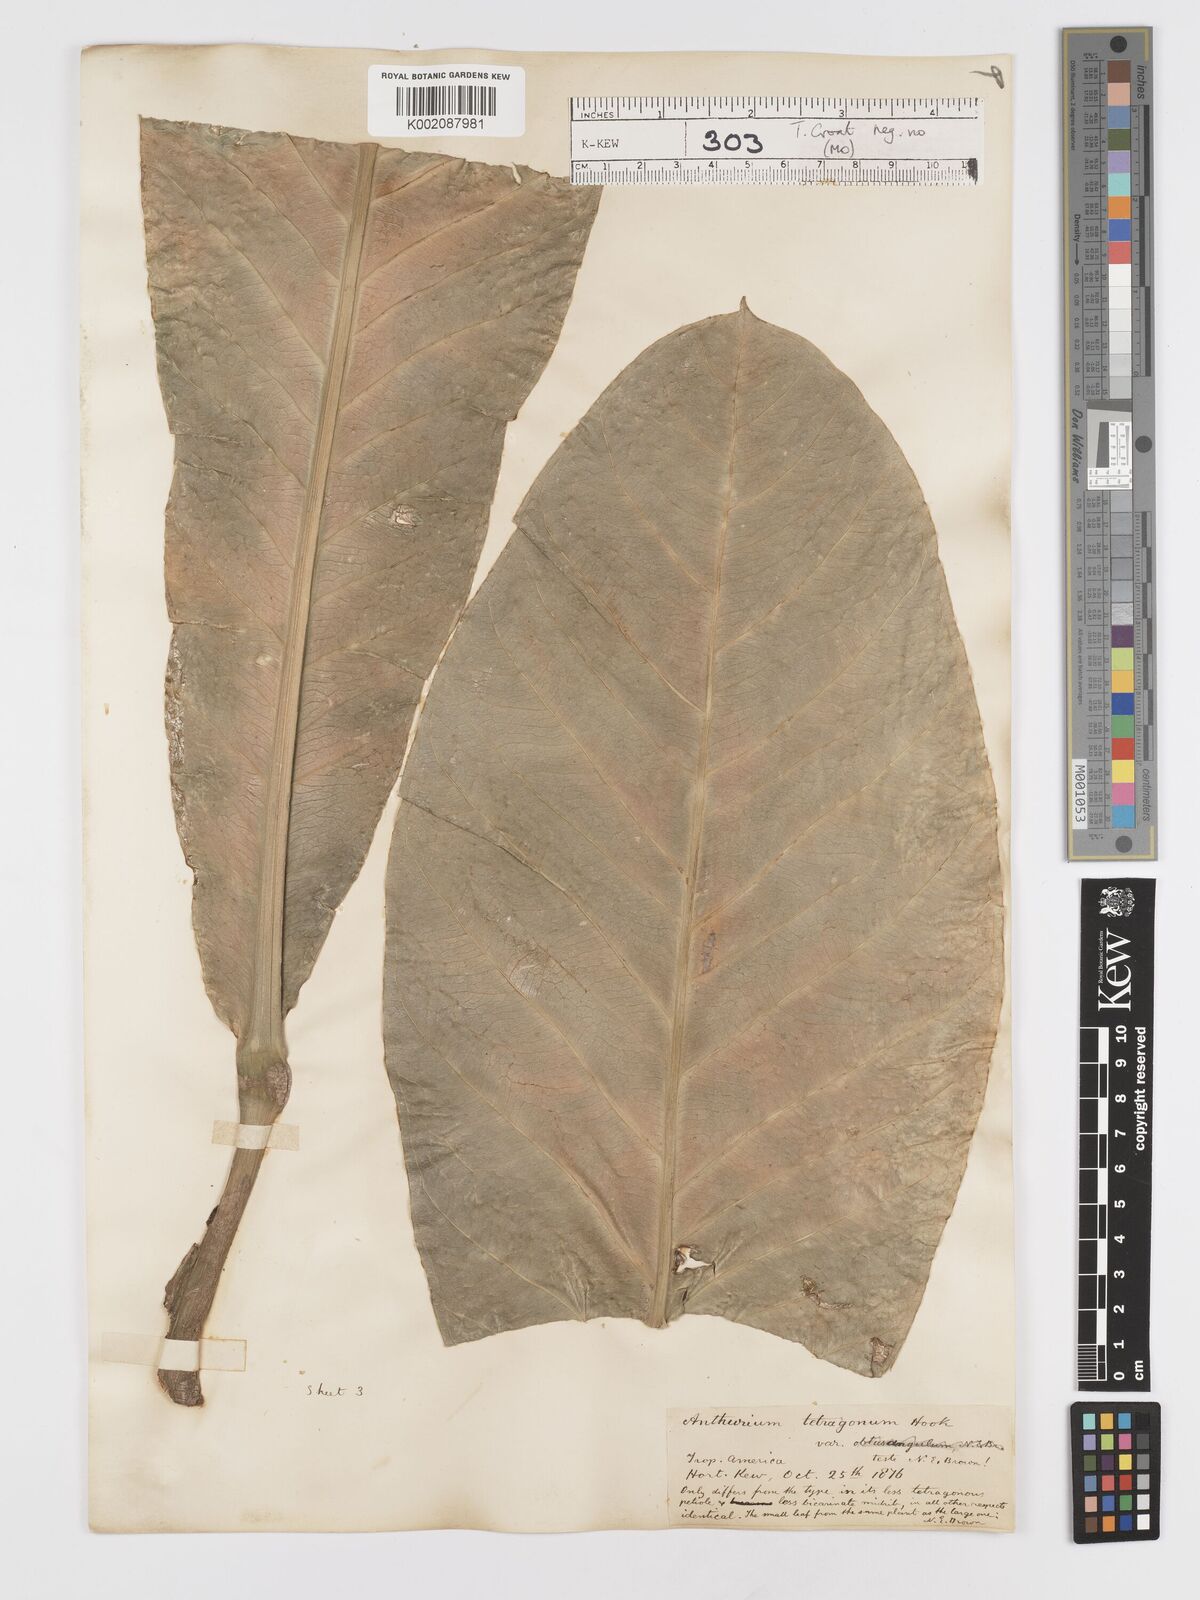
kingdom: Plantae
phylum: Tracheophyta
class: Liliopsida
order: Alismatales
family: Araceae
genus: Anthurium
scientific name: Anthurium schlechtendalii
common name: Laceleaf
